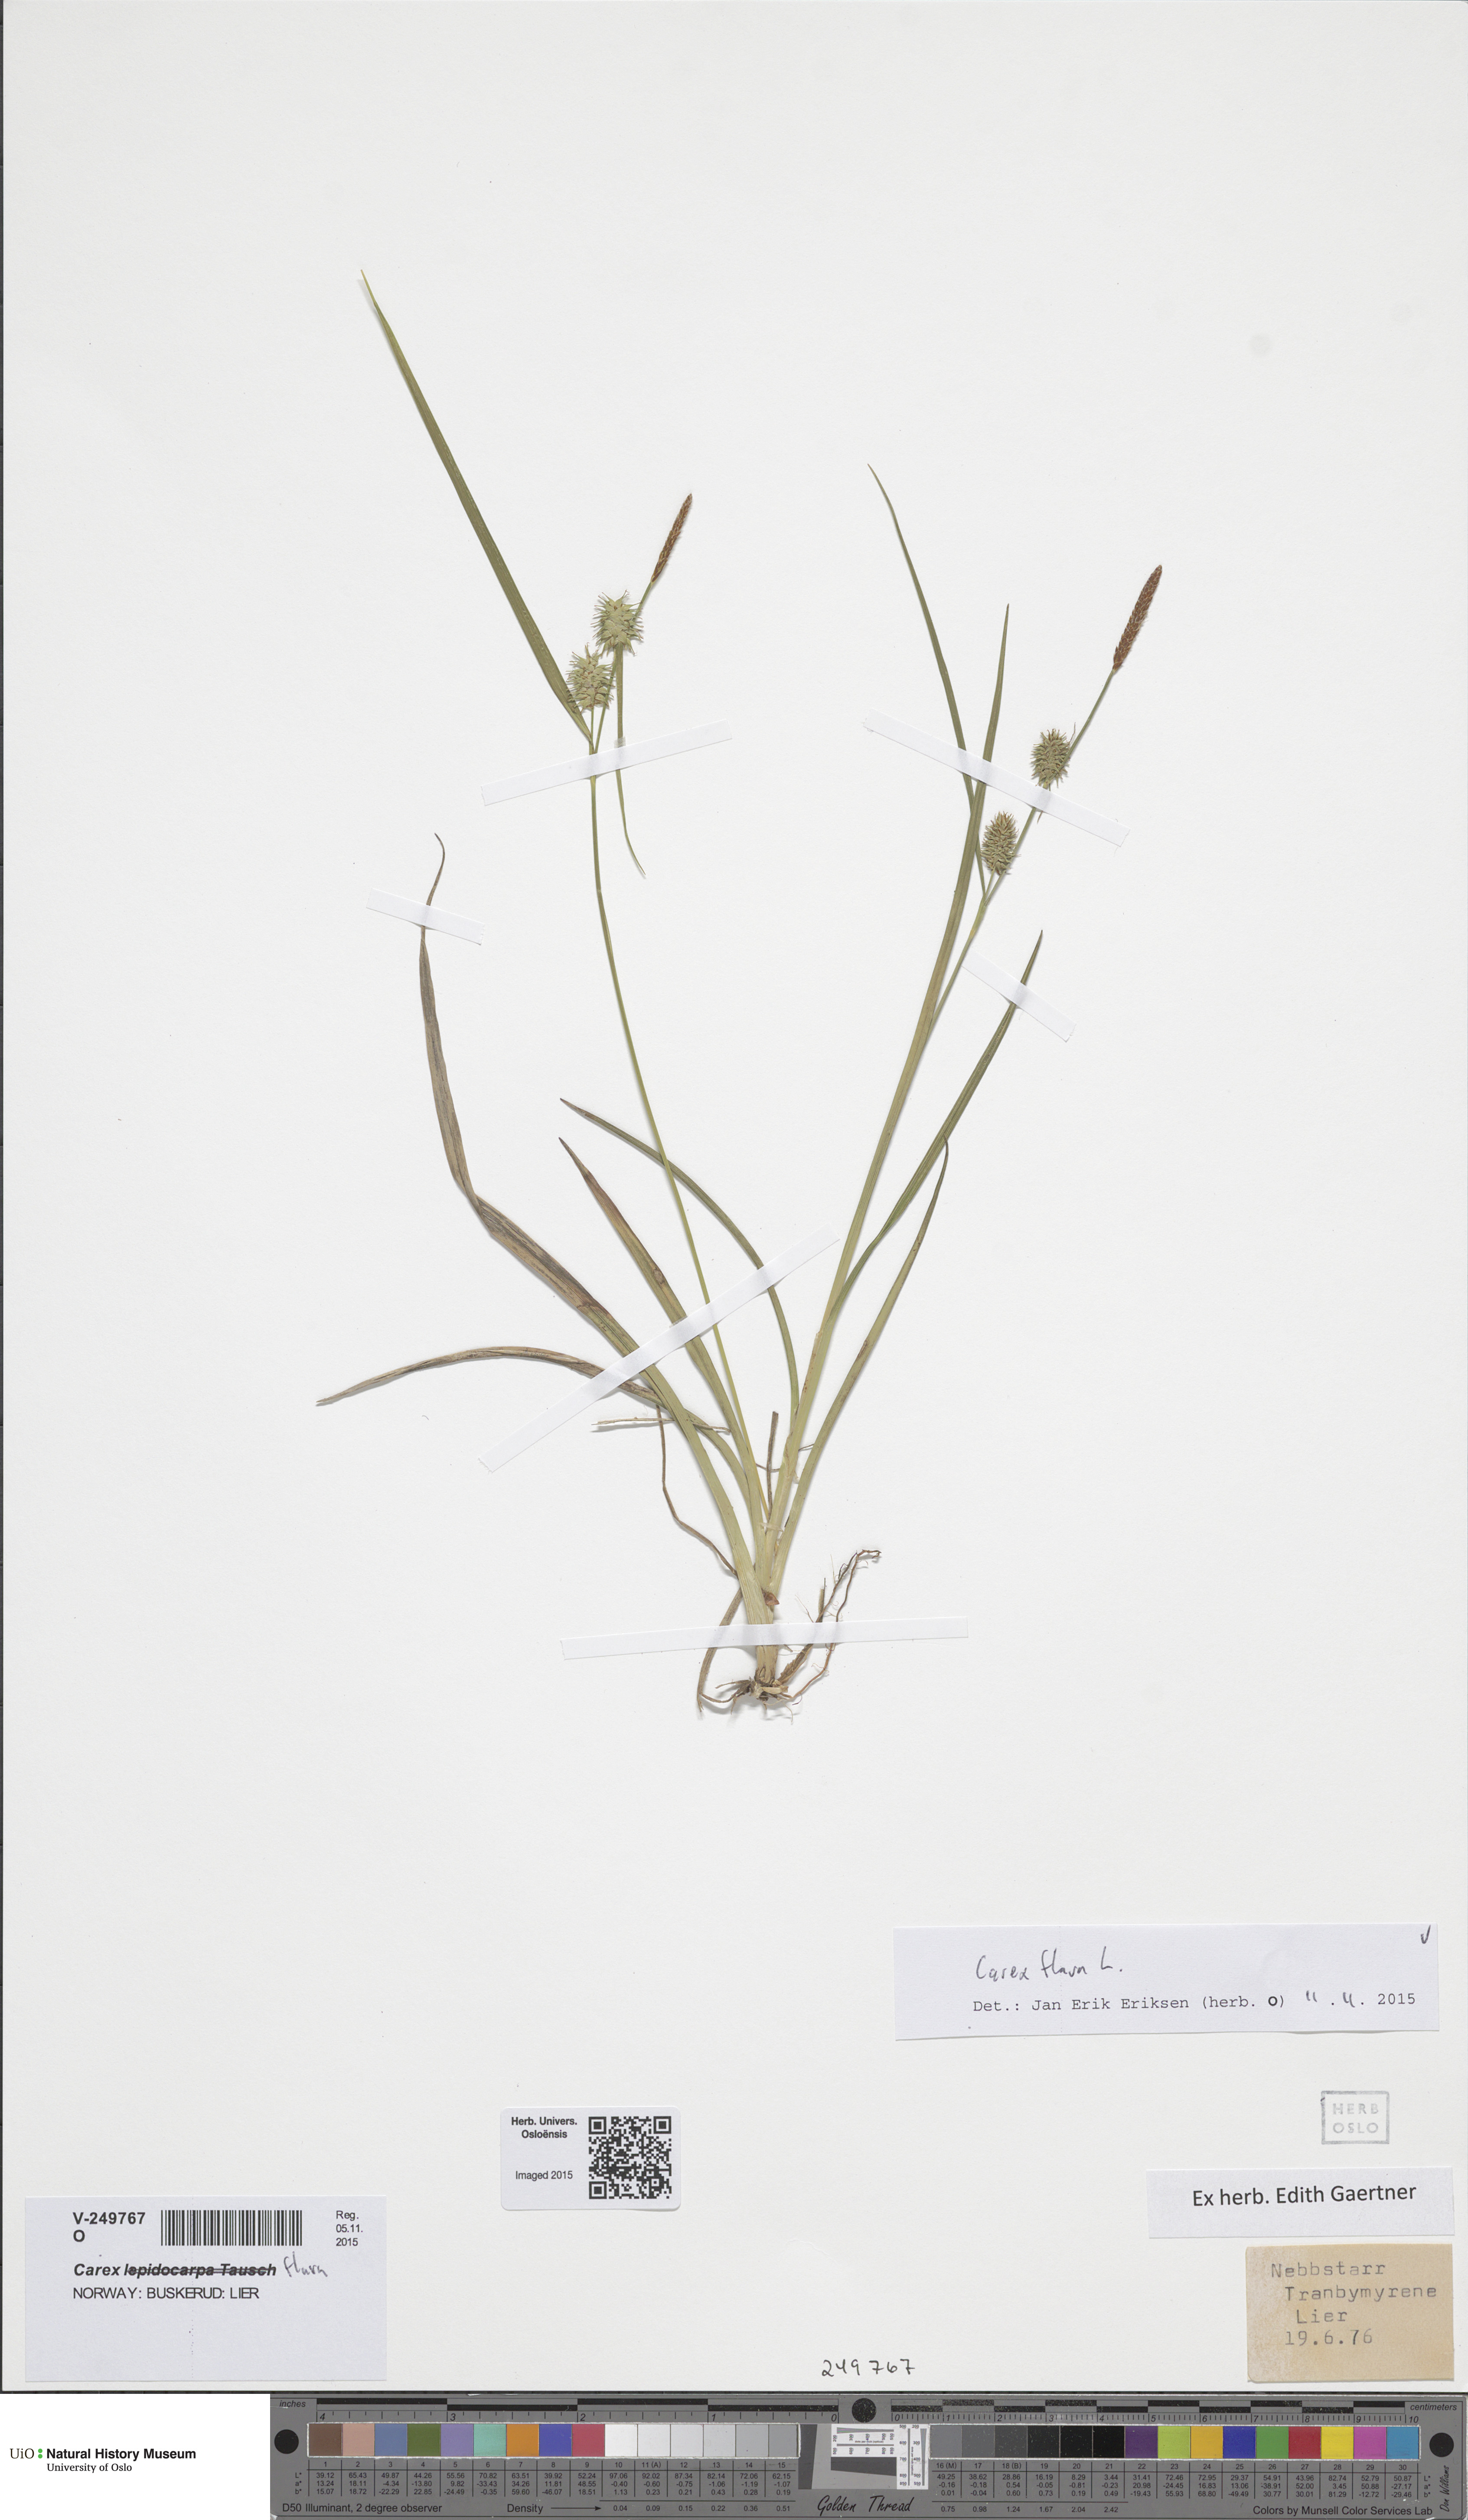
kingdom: Plantae
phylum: Tracheophyta
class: Liliopsida
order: Poales
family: Cyperaceae
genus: Carex
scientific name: Carex flava
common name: Large yellow-sedge
